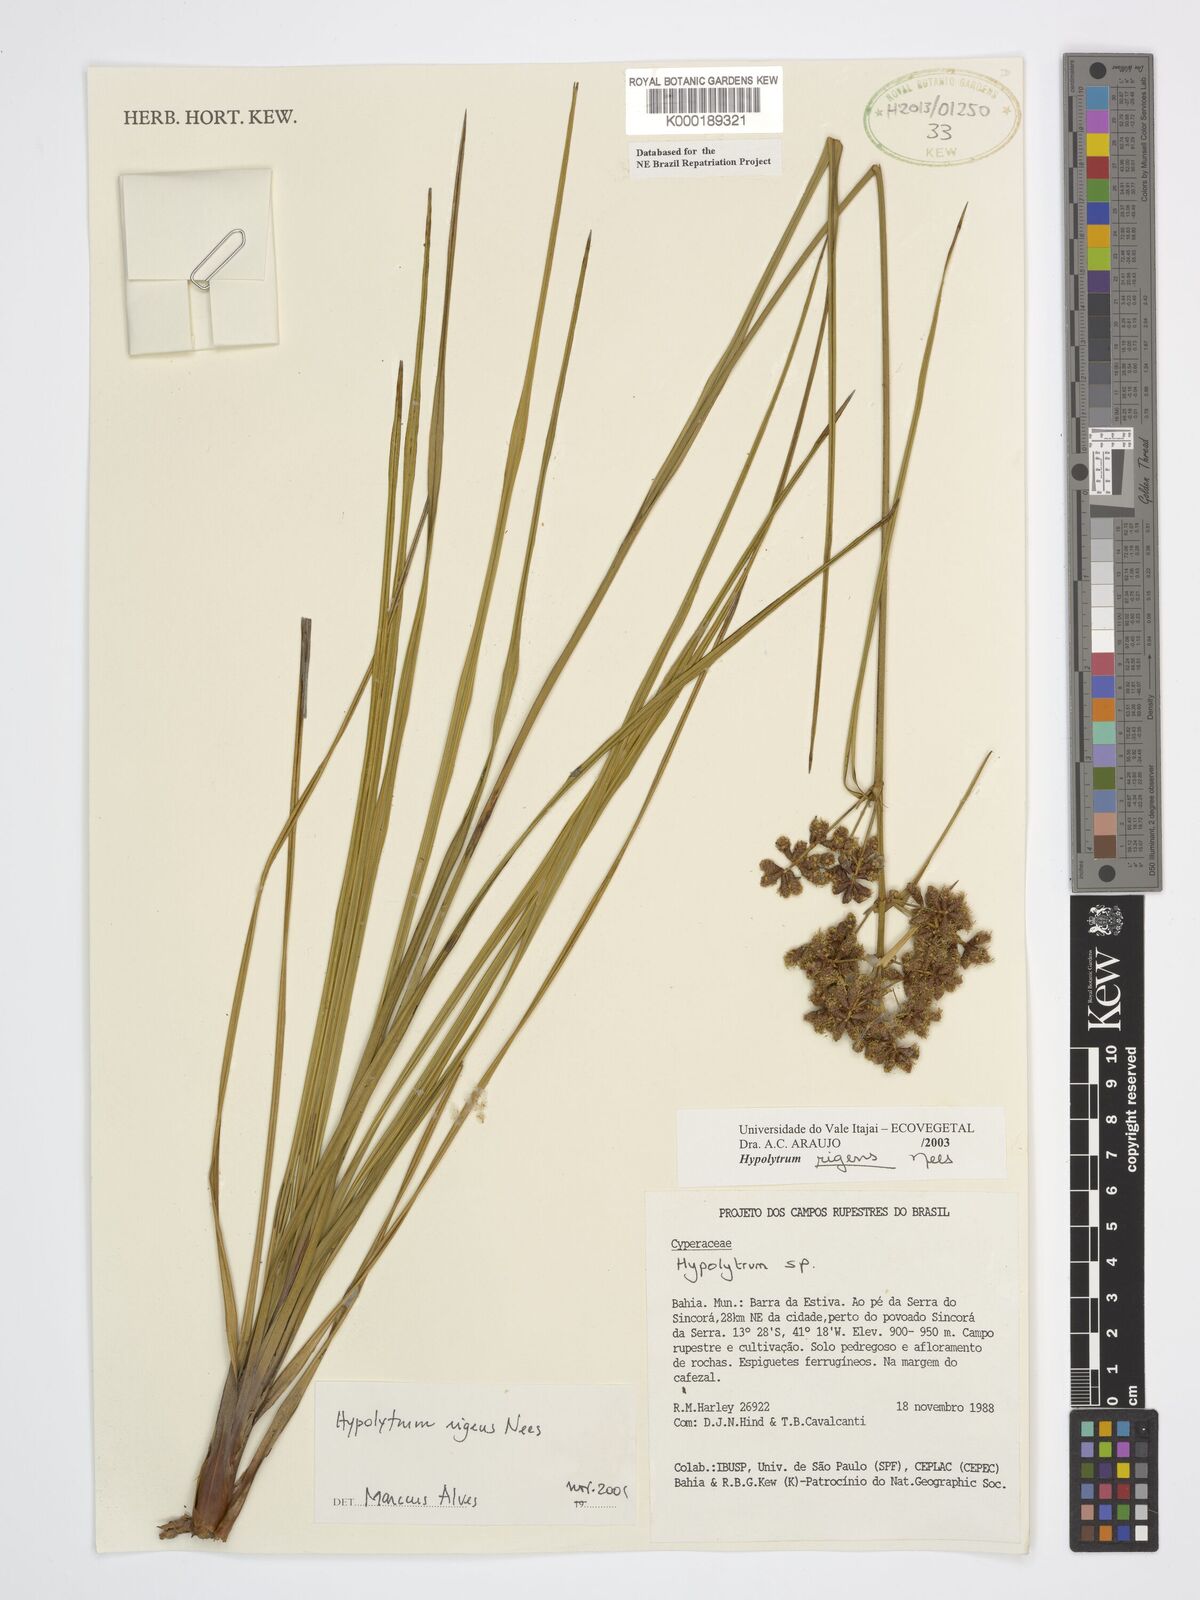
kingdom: Plantae
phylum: Tracheophyta
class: Liliopsida
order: Poales
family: Cyperaceae
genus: Hypolytrum
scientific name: Hypolytrum rigens
